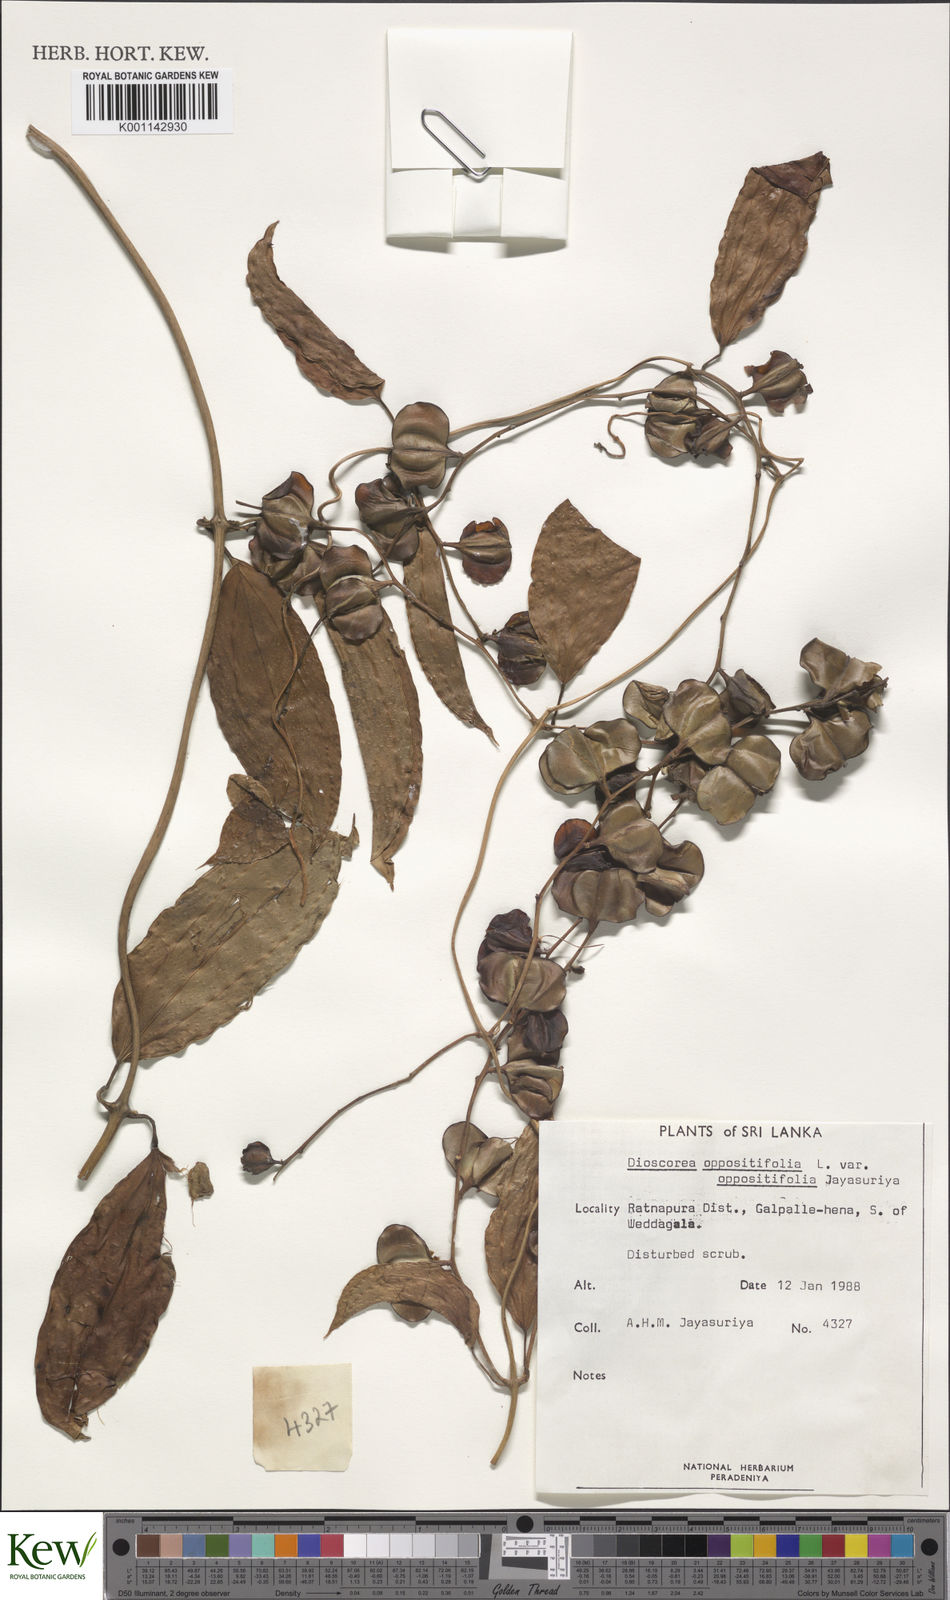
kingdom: Plantae
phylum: Tracheophyta
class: Liliopsida
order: Dioscoreales
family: Dioscoreaceae
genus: Dioscorea
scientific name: Dioscorea oppositifolia
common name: Chinese yam
